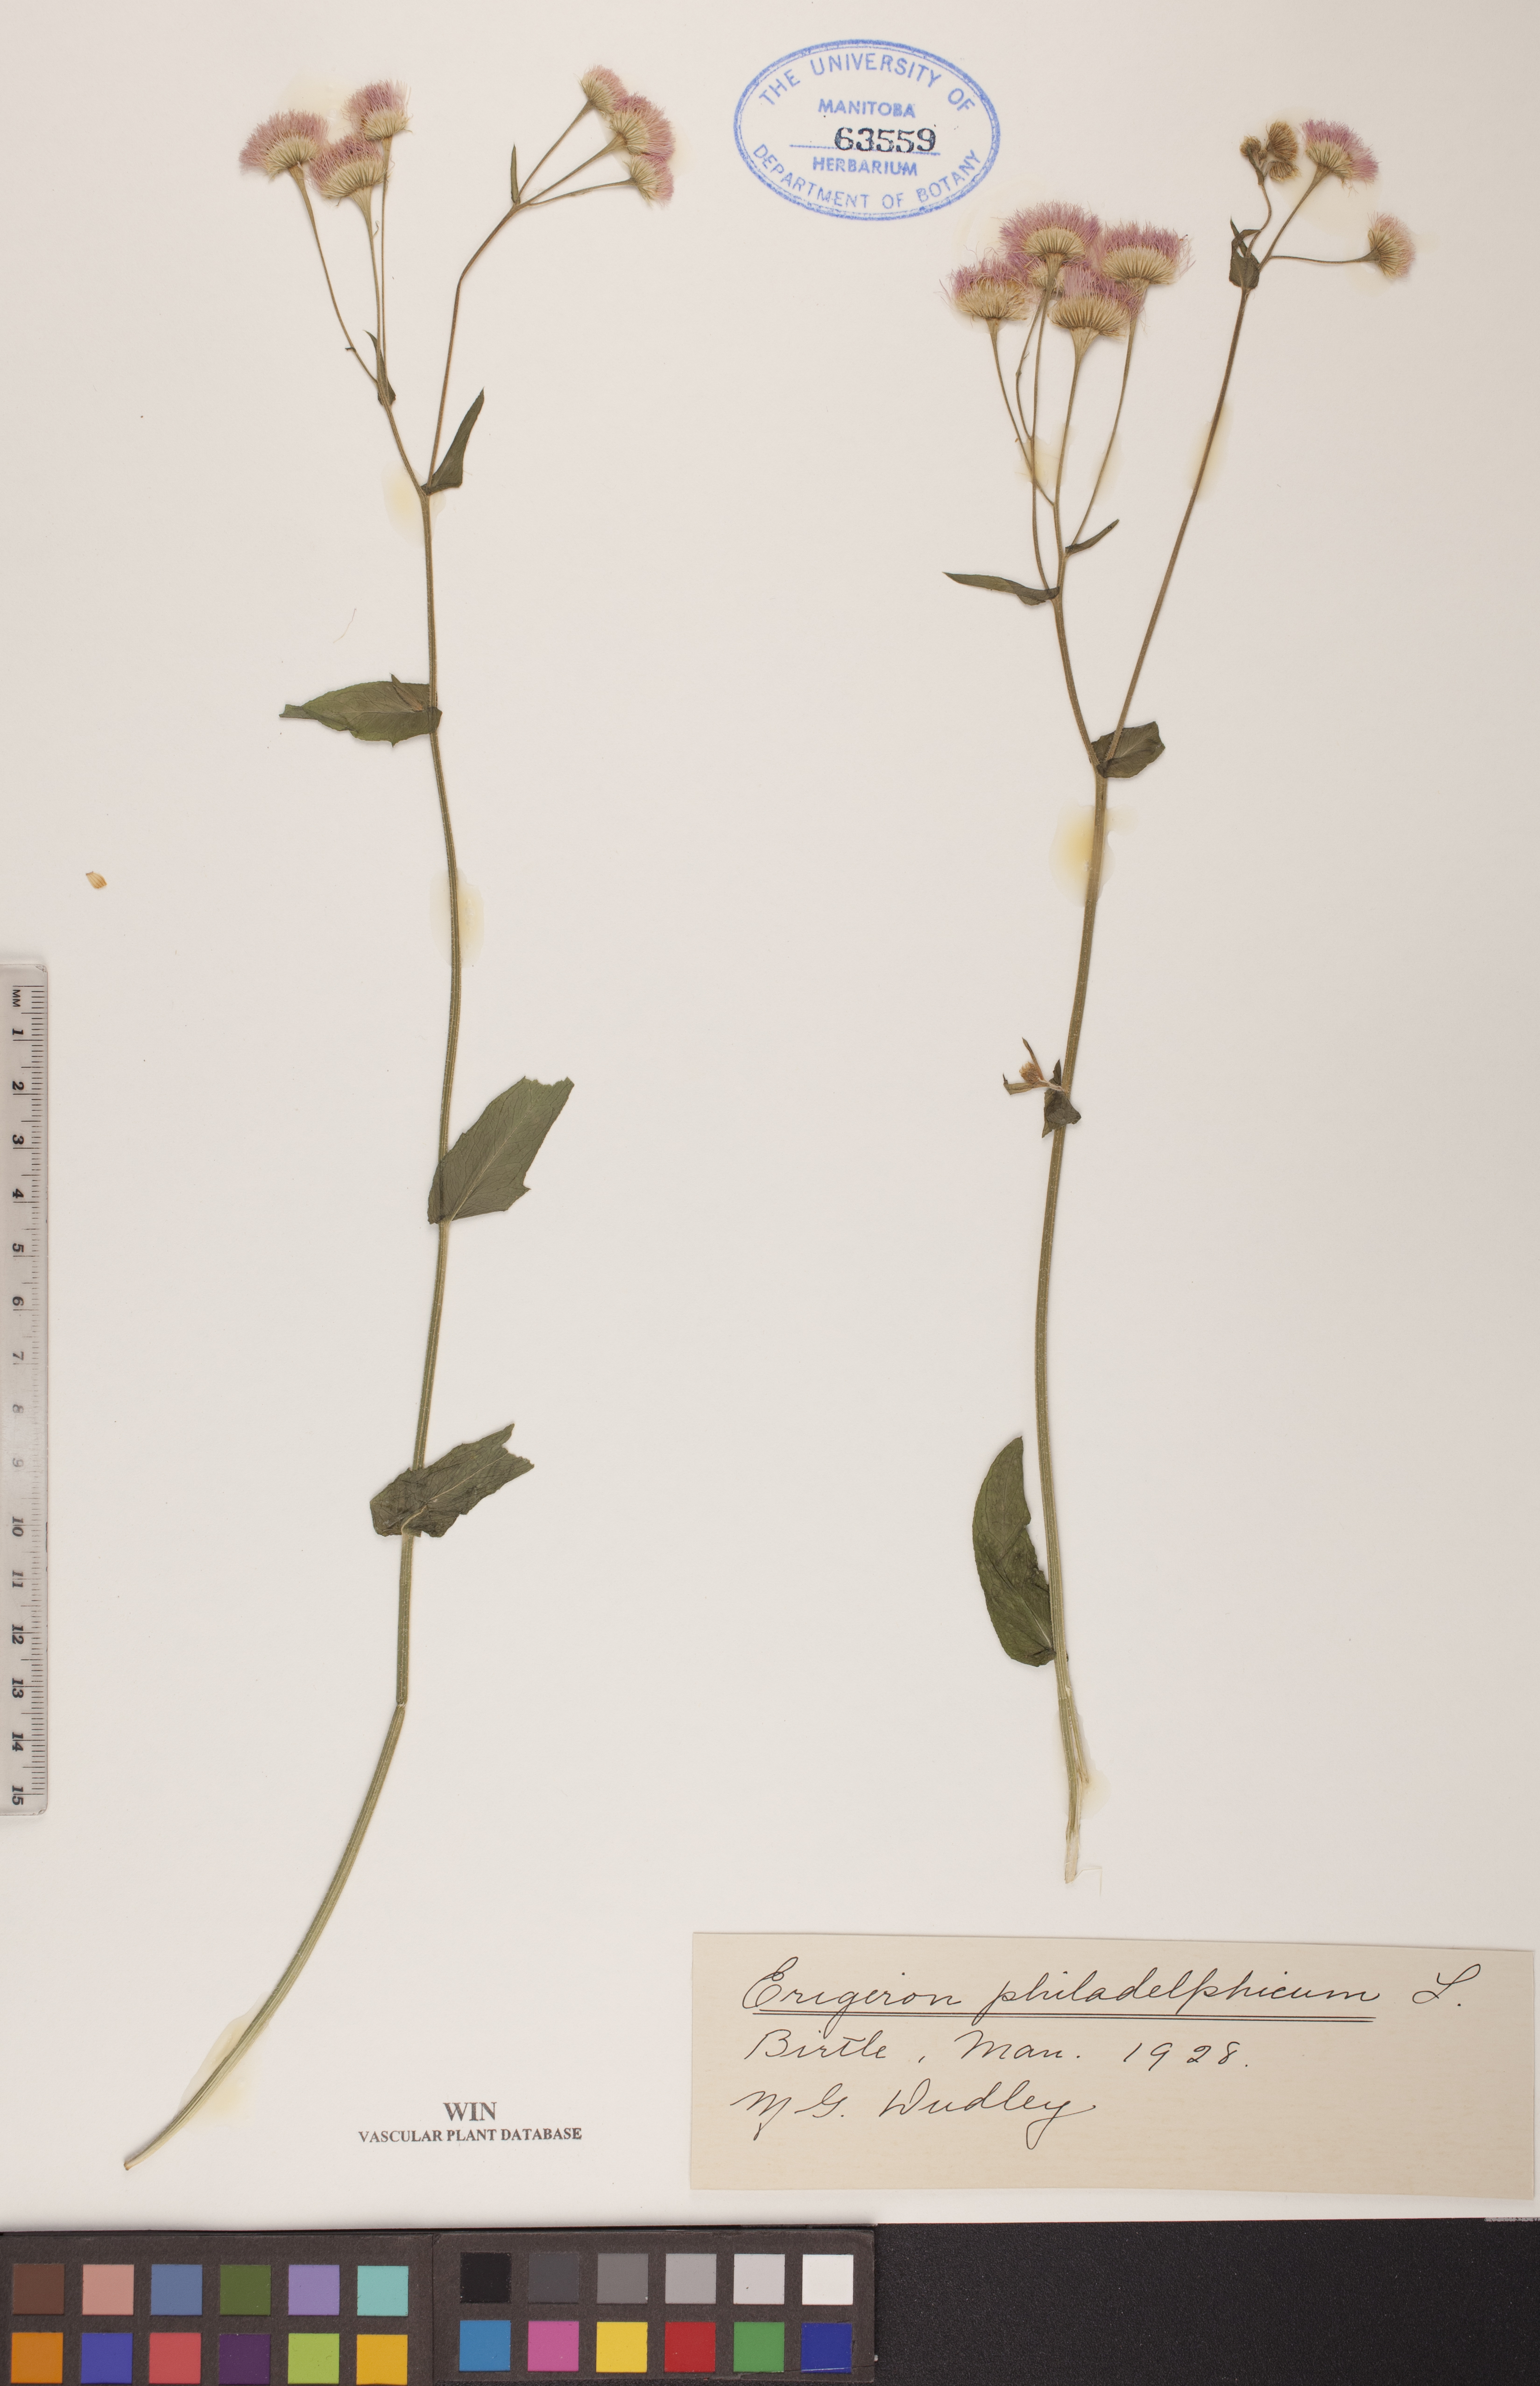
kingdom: Plantae
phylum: Tracheophyta
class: Magnoliopsida
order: Asterales
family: Asteraceae
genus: Erigeron
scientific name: Erigeron philadelphicus
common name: Robin's-plantain
